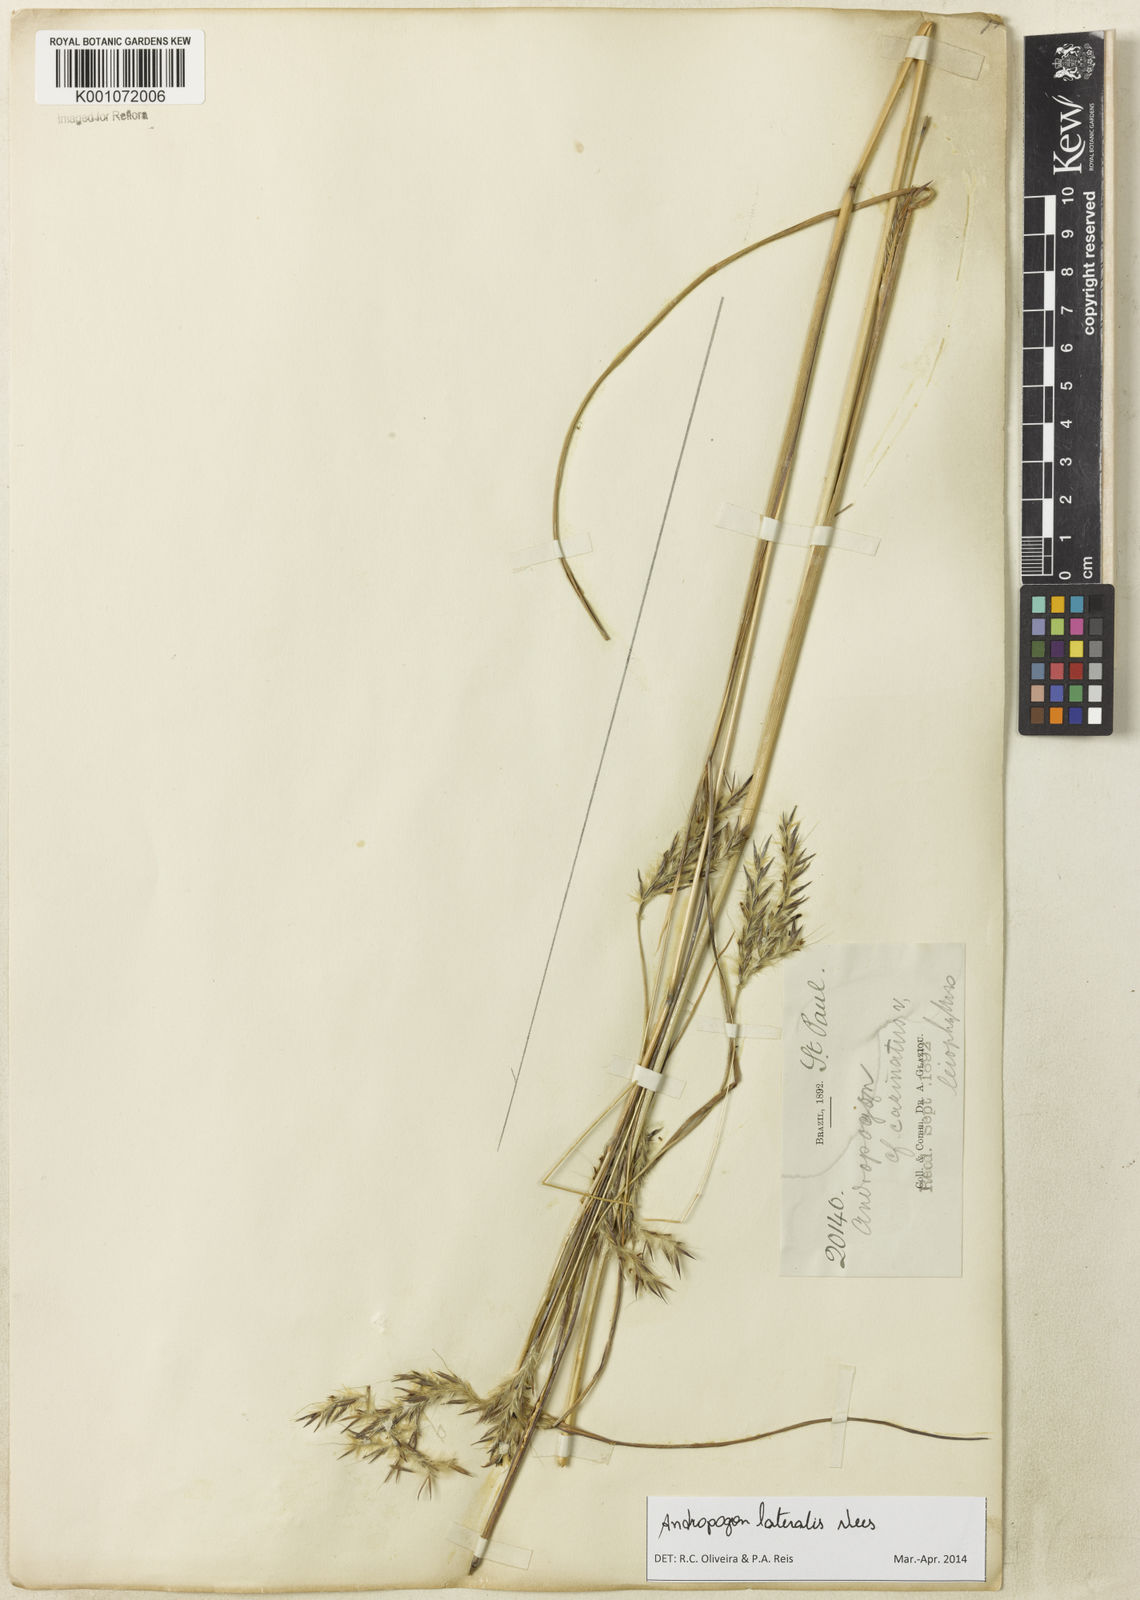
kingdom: Plantae
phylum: Tracheophyta
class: Liliopsida
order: Poales
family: Poaceae
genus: Andropogon
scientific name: Andropogon lateralis
